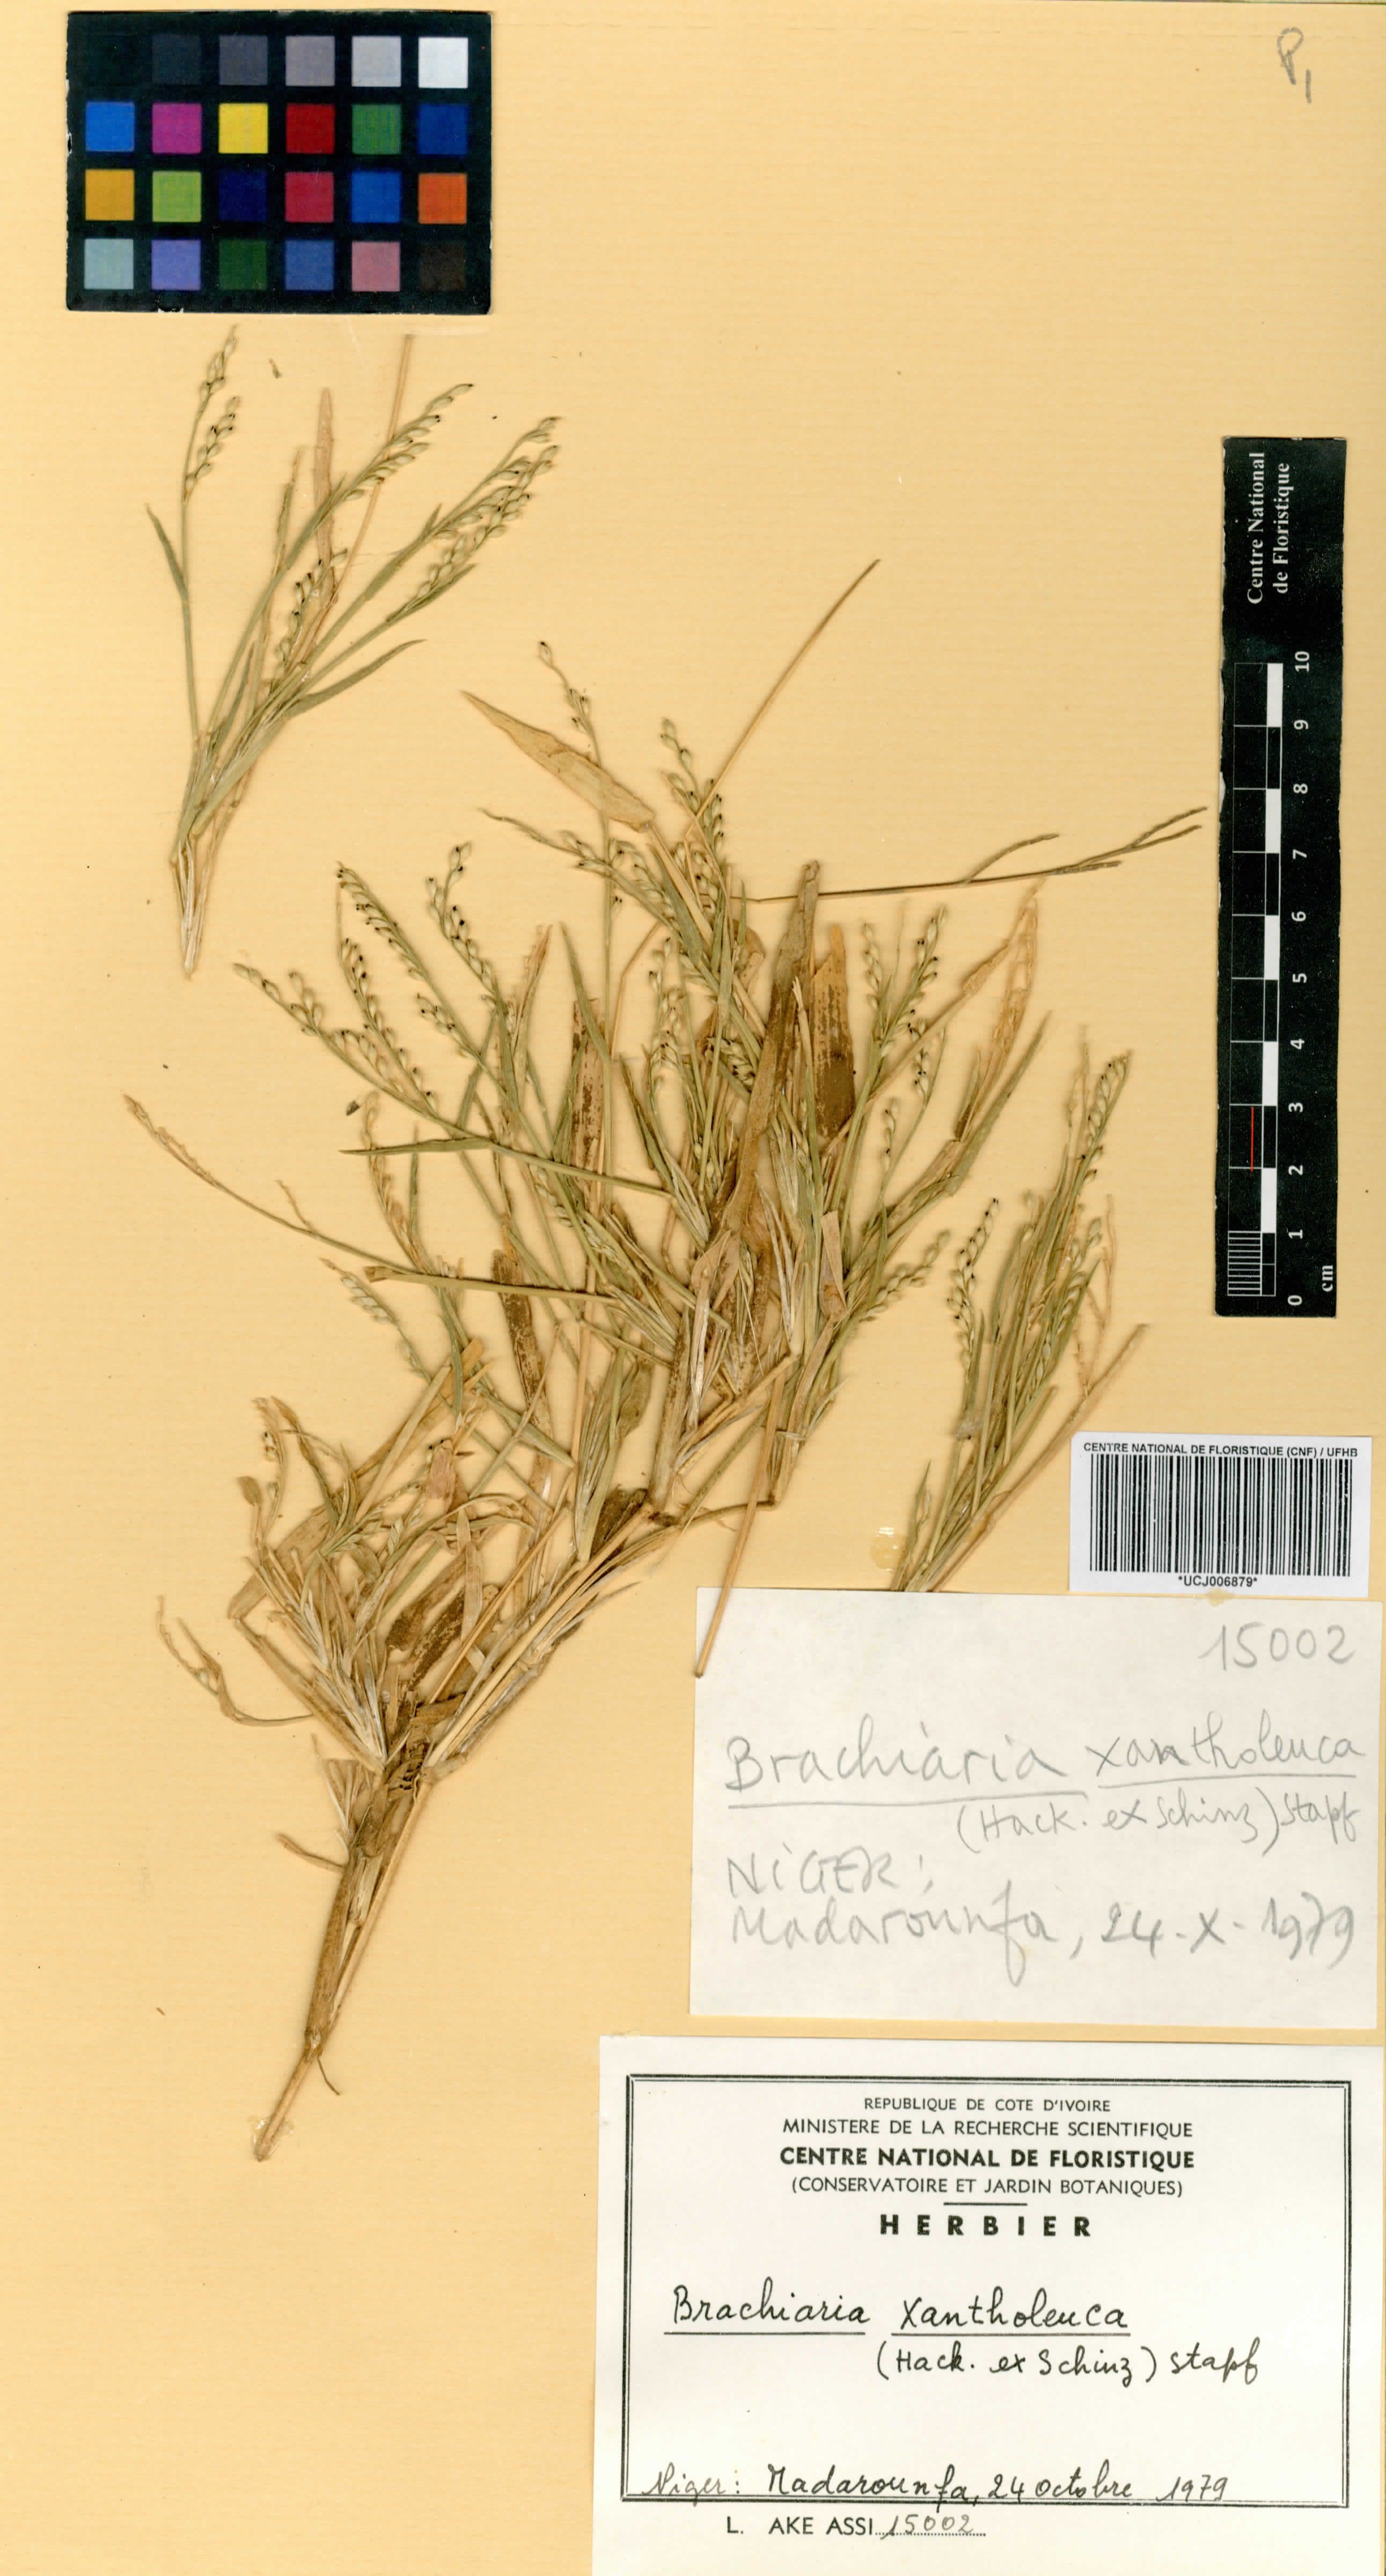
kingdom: Plantae
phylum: Tracheophyta
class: Liliopsida
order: Poales
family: Poaceae
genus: Urochloa
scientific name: Urochloa xantholeuca
